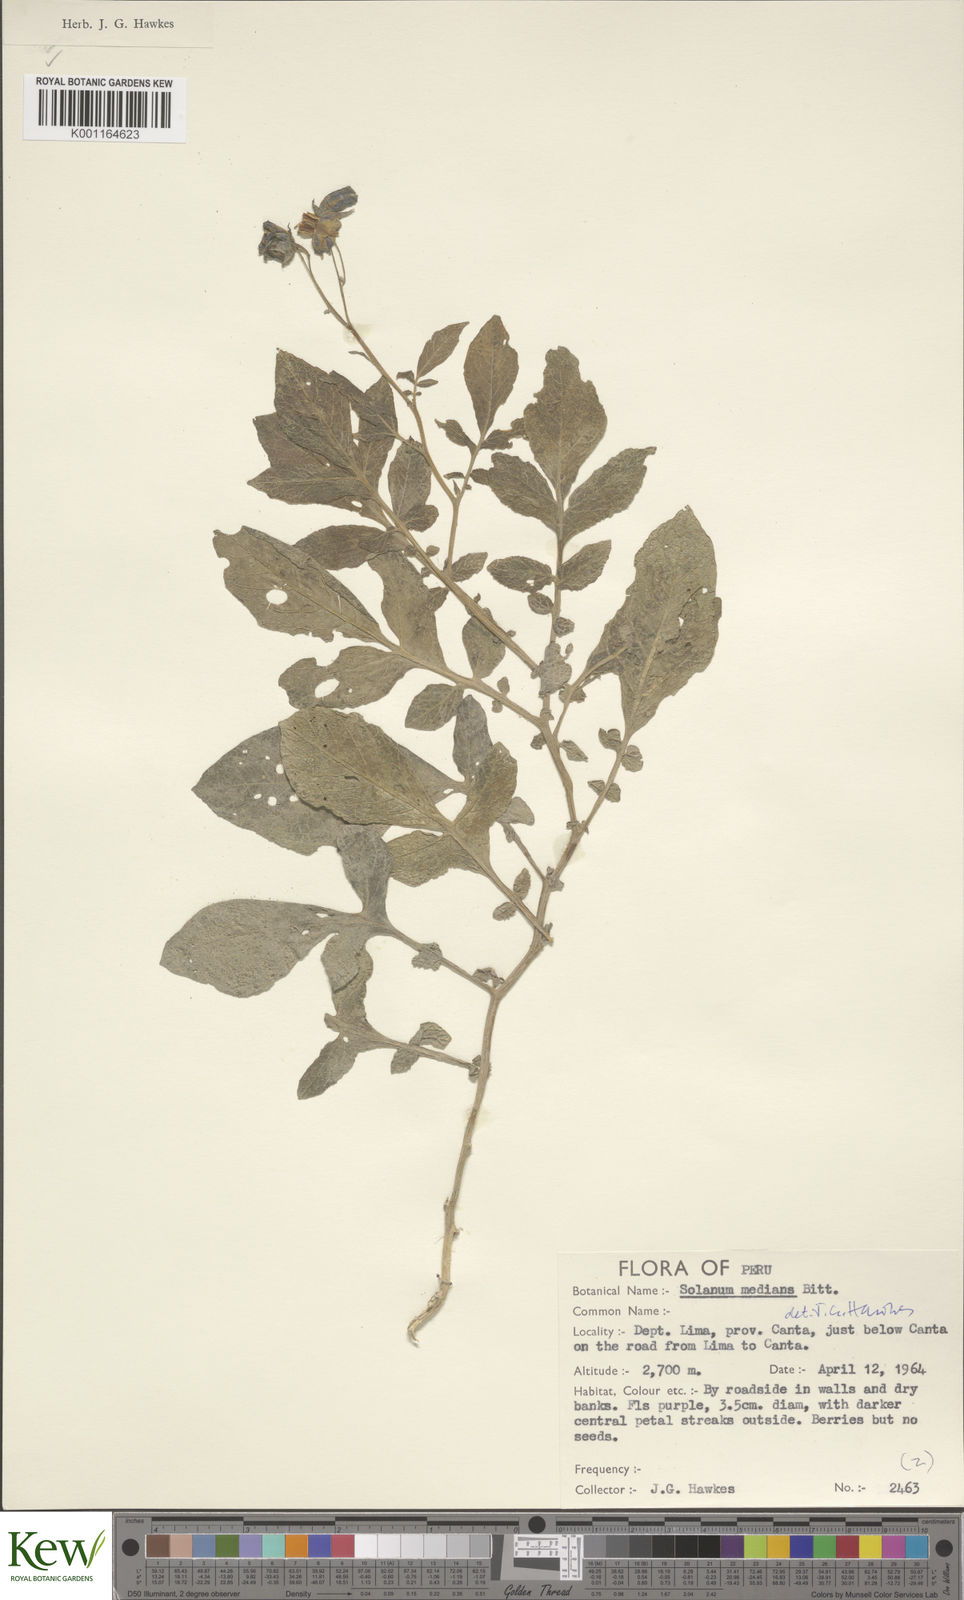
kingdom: Plantae
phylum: Tracheophyta
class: Magnoliopsida
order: Solanales
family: Solanaceae
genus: Solanum
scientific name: Solanum medians
